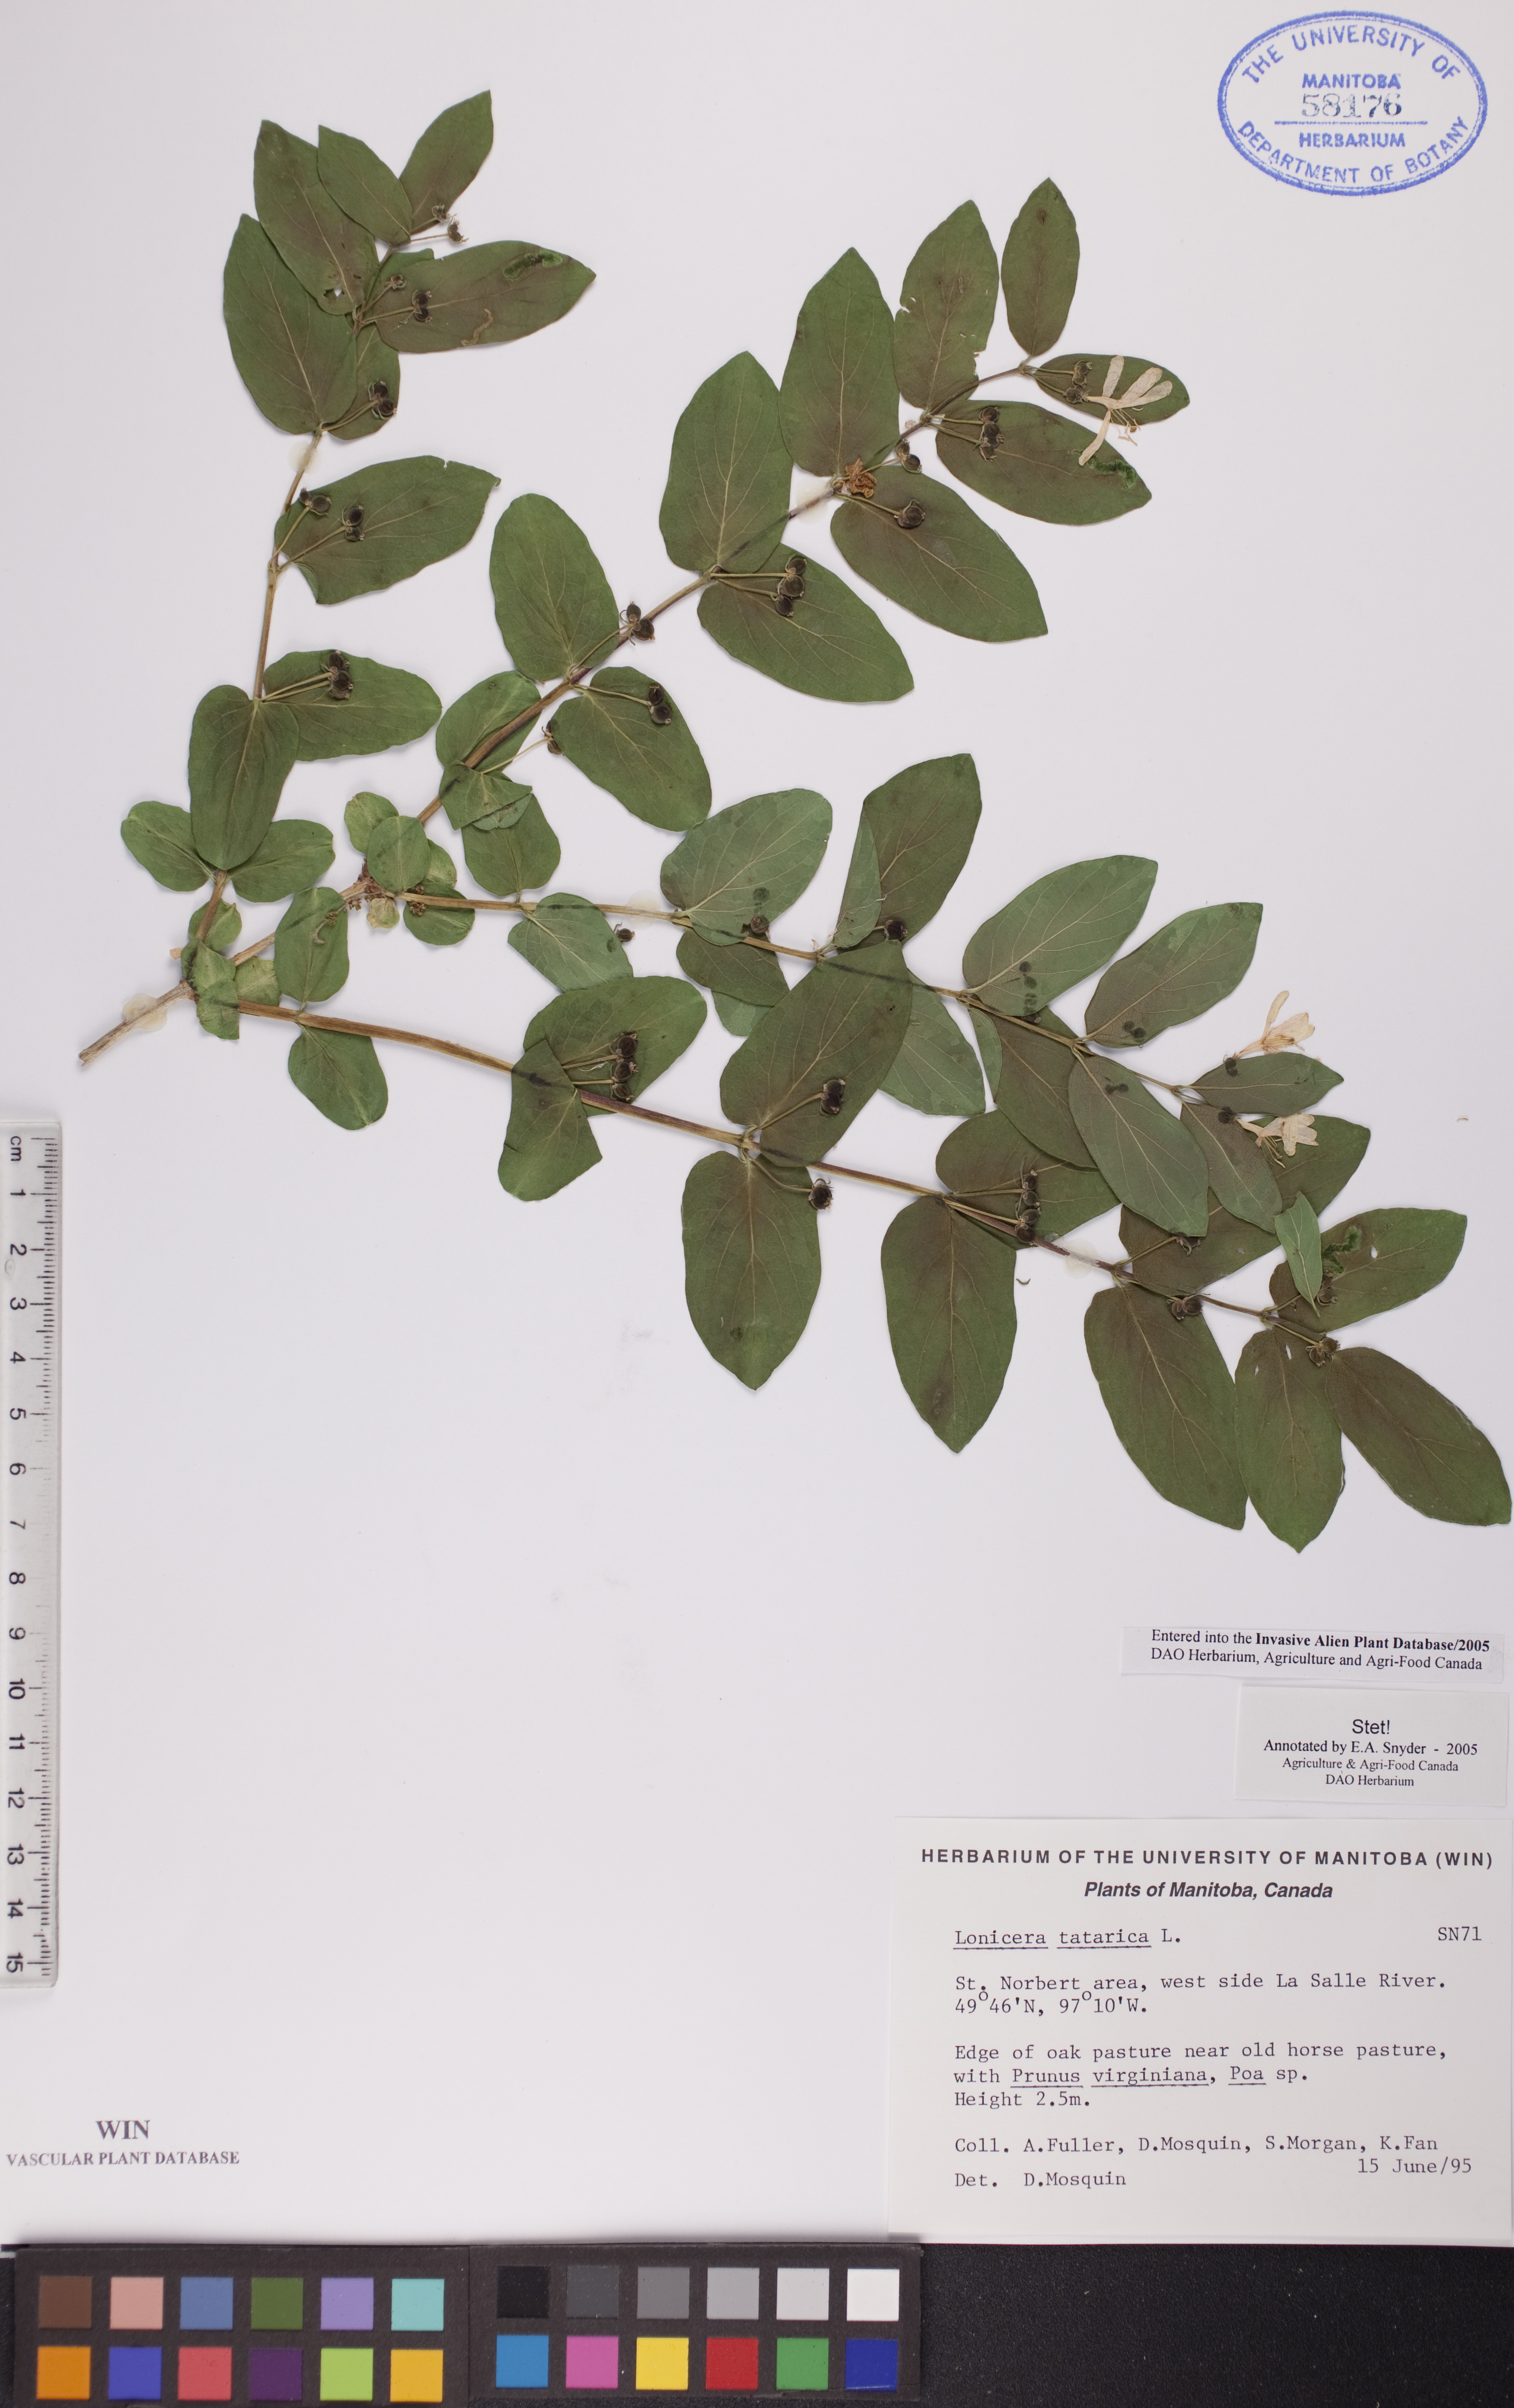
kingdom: Plantae
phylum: Tracheophyta
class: Magnoliopsida
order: Dipsacales
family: Caprifoliaceae
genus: Lonicera
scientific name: Lonicera tatarica
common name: Tatarian honeysuckle
